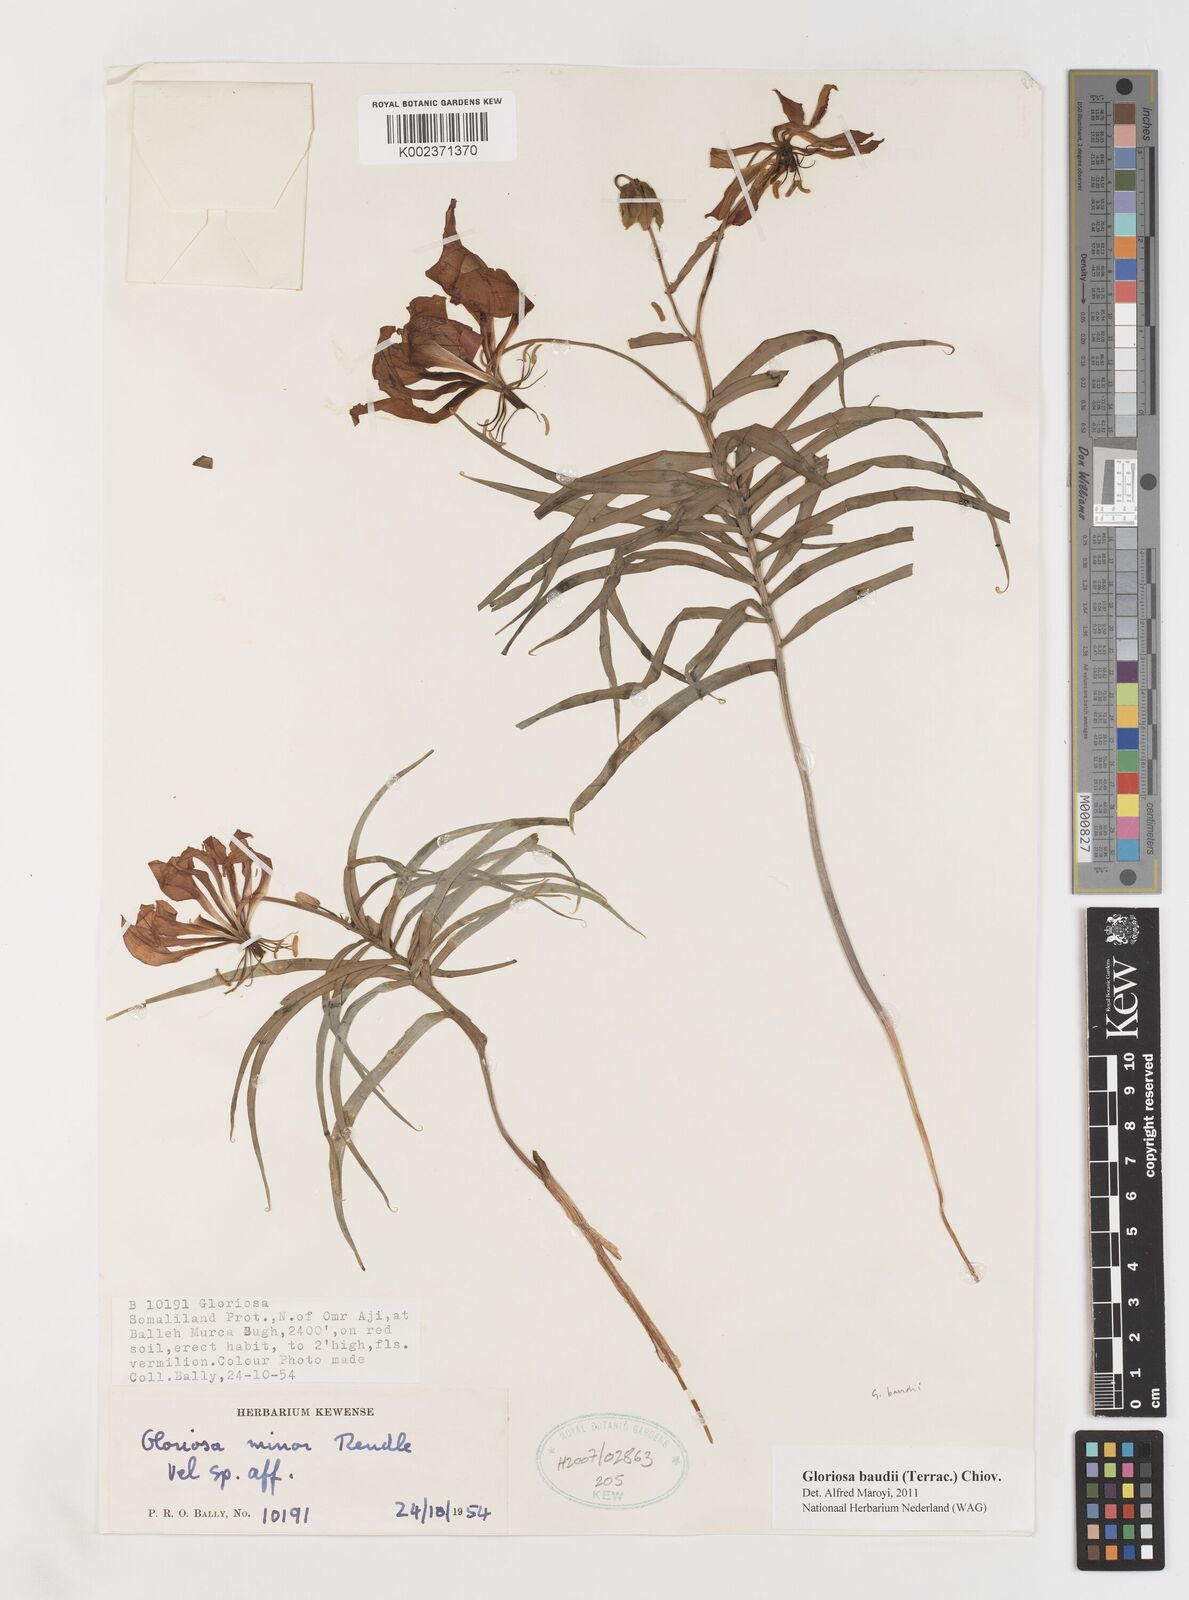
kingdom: Plantae
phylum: Tracheophyta
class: Liliopsida
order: Liliales
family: Colchicaceae
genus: Gloriosa
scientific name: Gloriosa baudii
